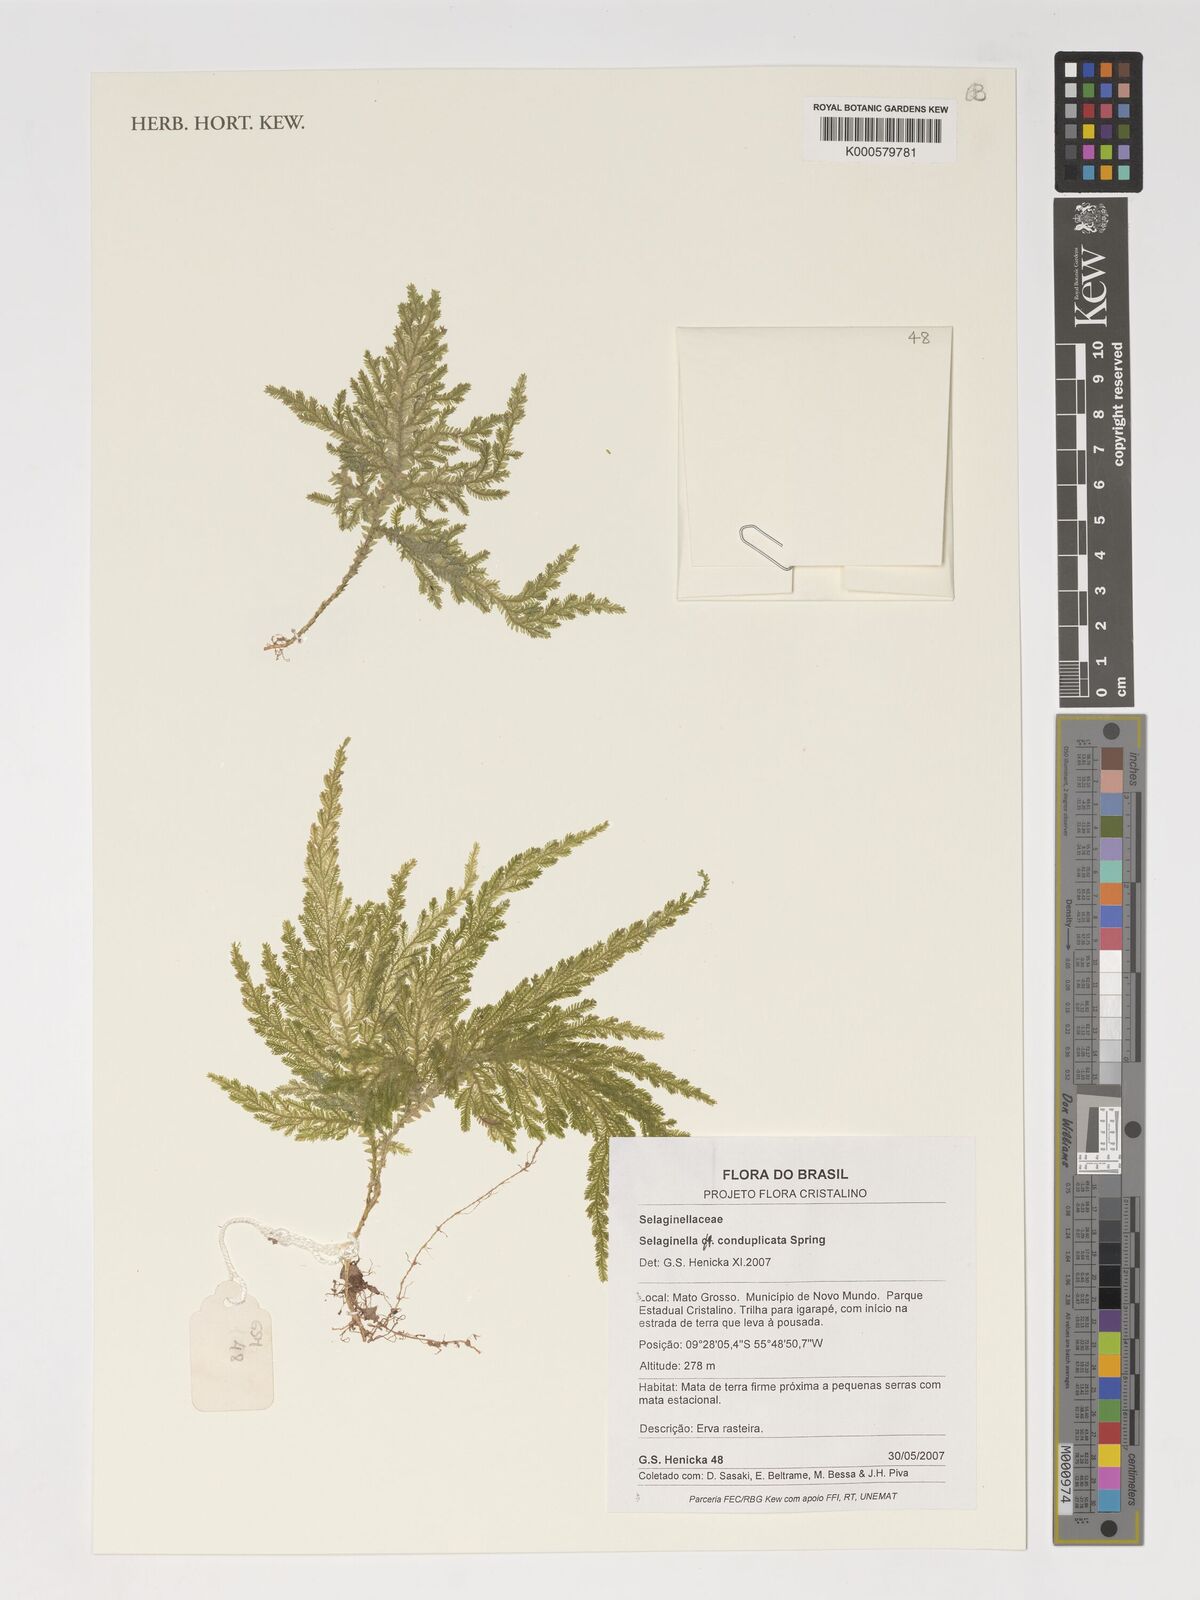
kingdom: Plantae
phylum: Tracheophyta
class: Lycopodiopsida
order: Selaginellales
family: Selaginellaceae
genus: Selaginella
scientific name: Selaginella conduplicata
